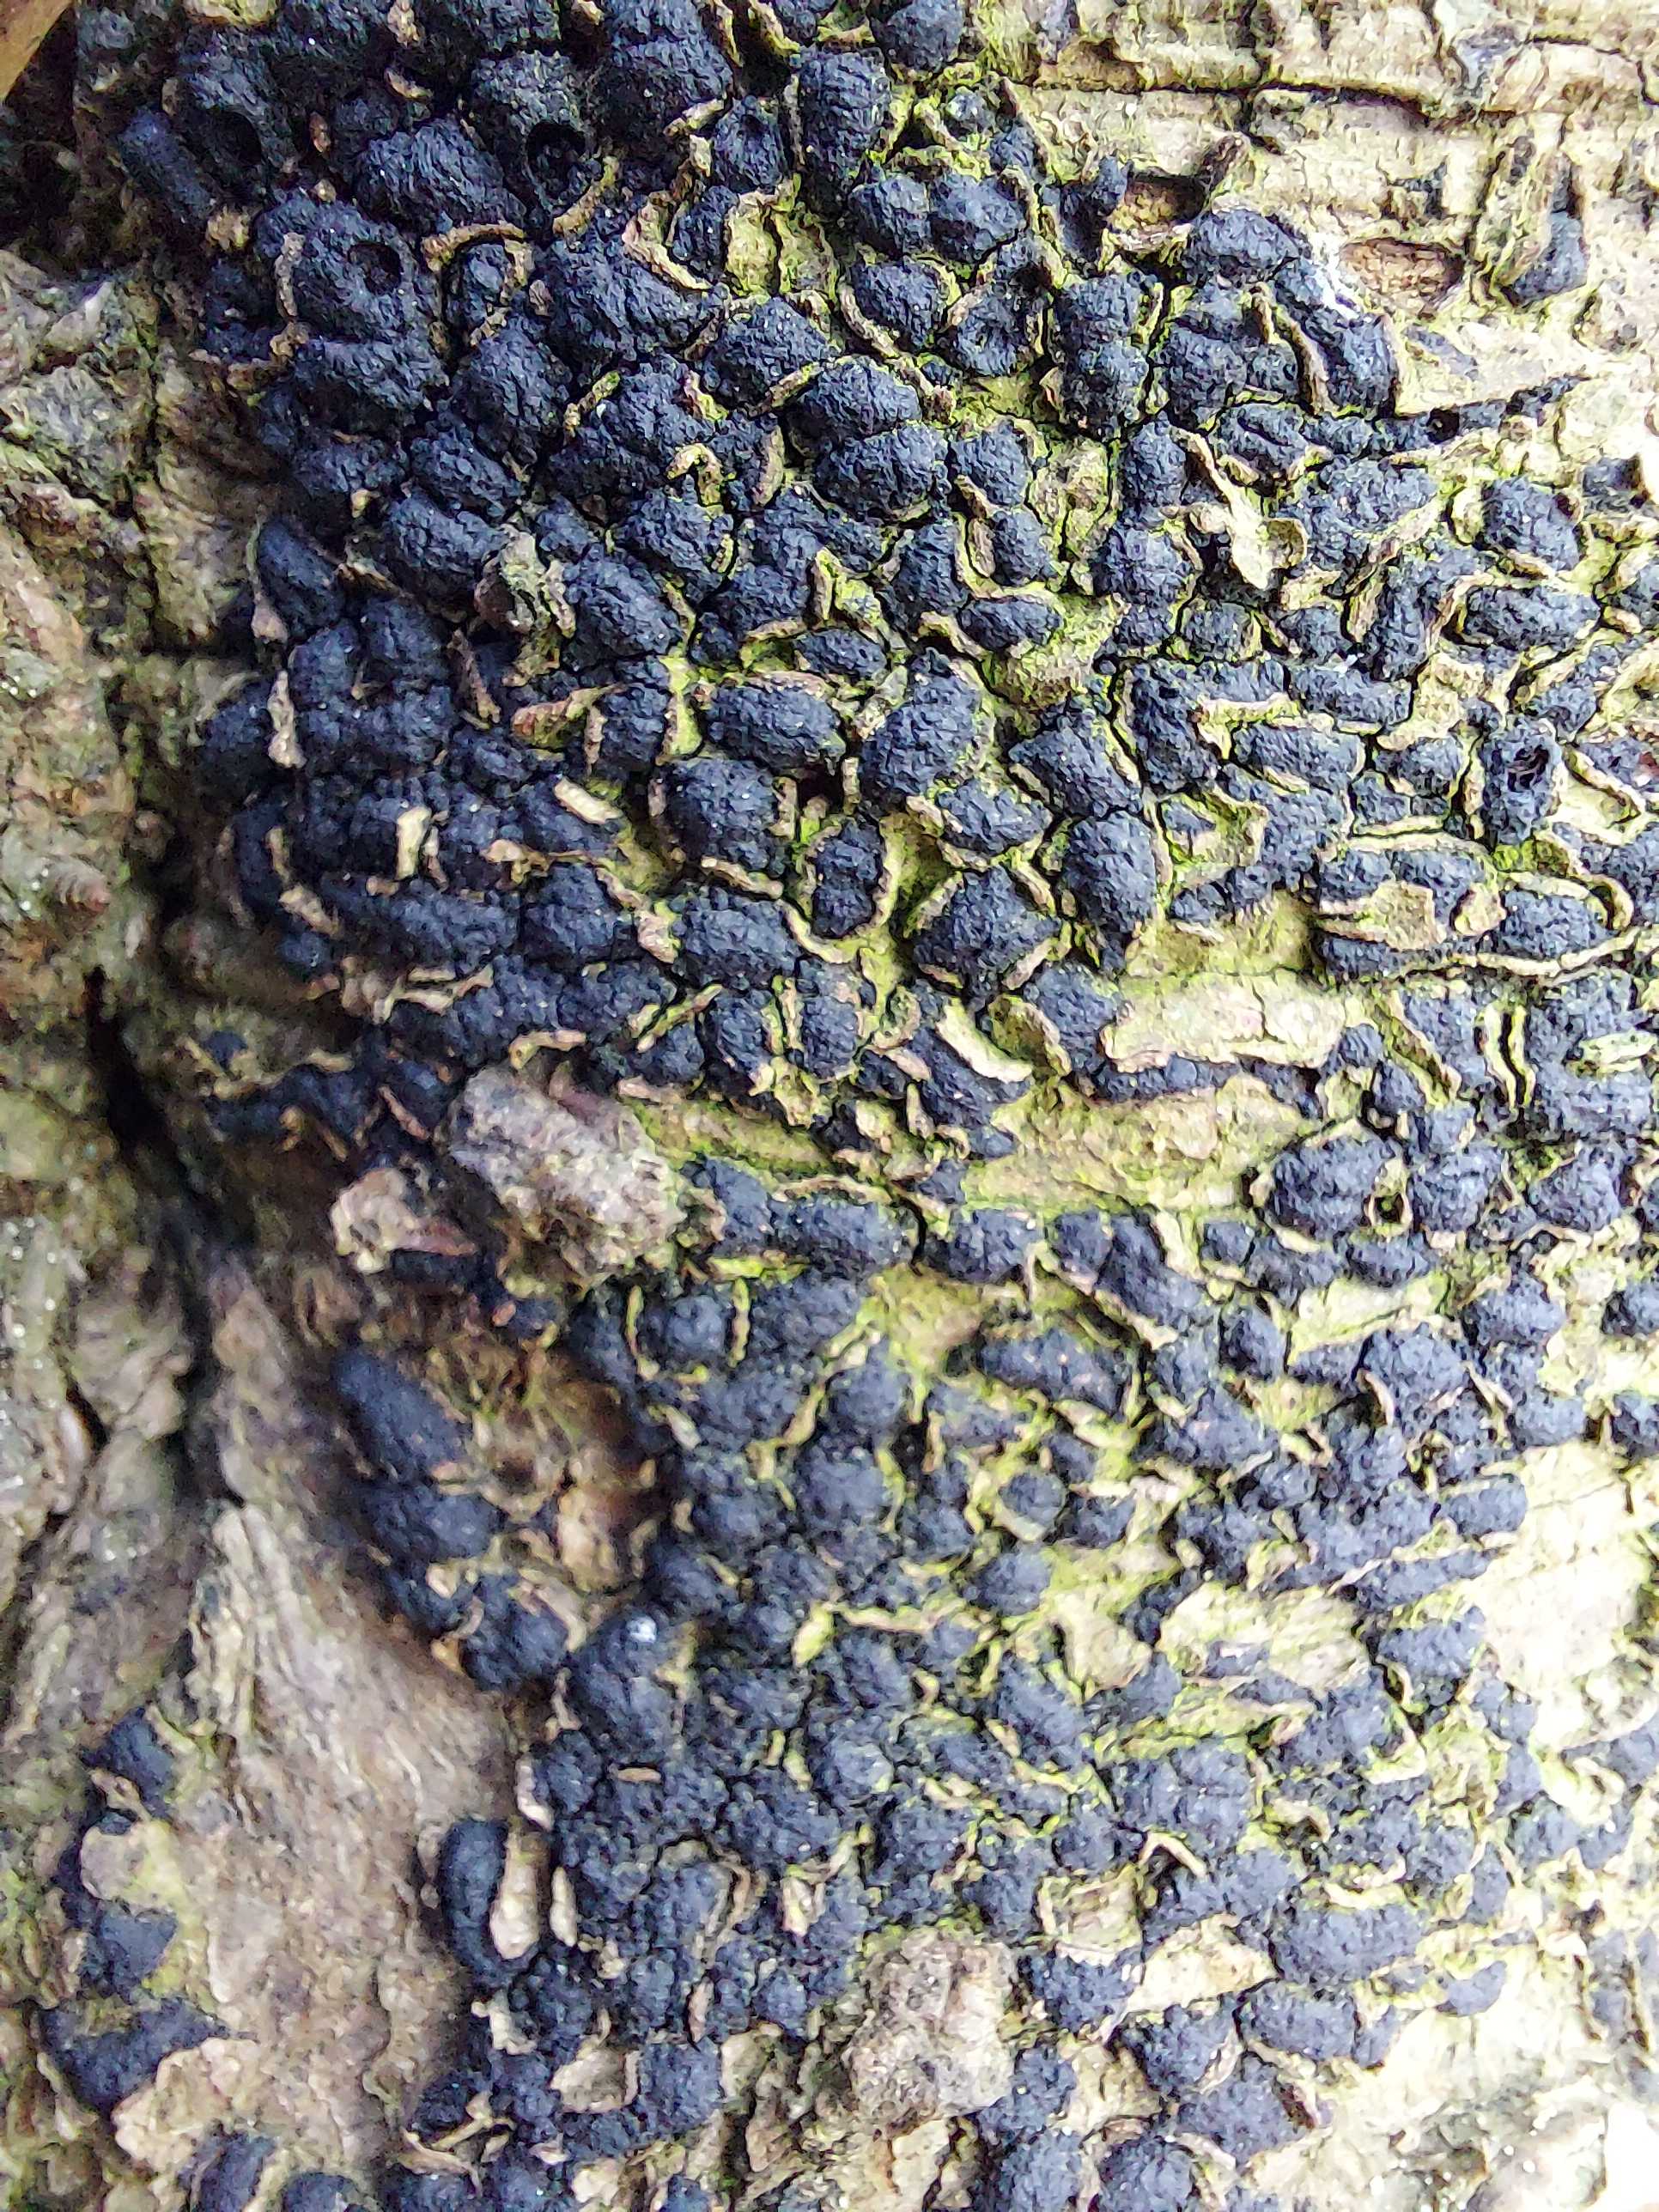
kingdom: Fungi
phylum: Ascomycota
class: Sordariomycetes
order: Xylariales
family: Melogrammataceae
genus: Melogramma
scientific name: Melogramma spiniferum
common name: bøgefod-kulhals
